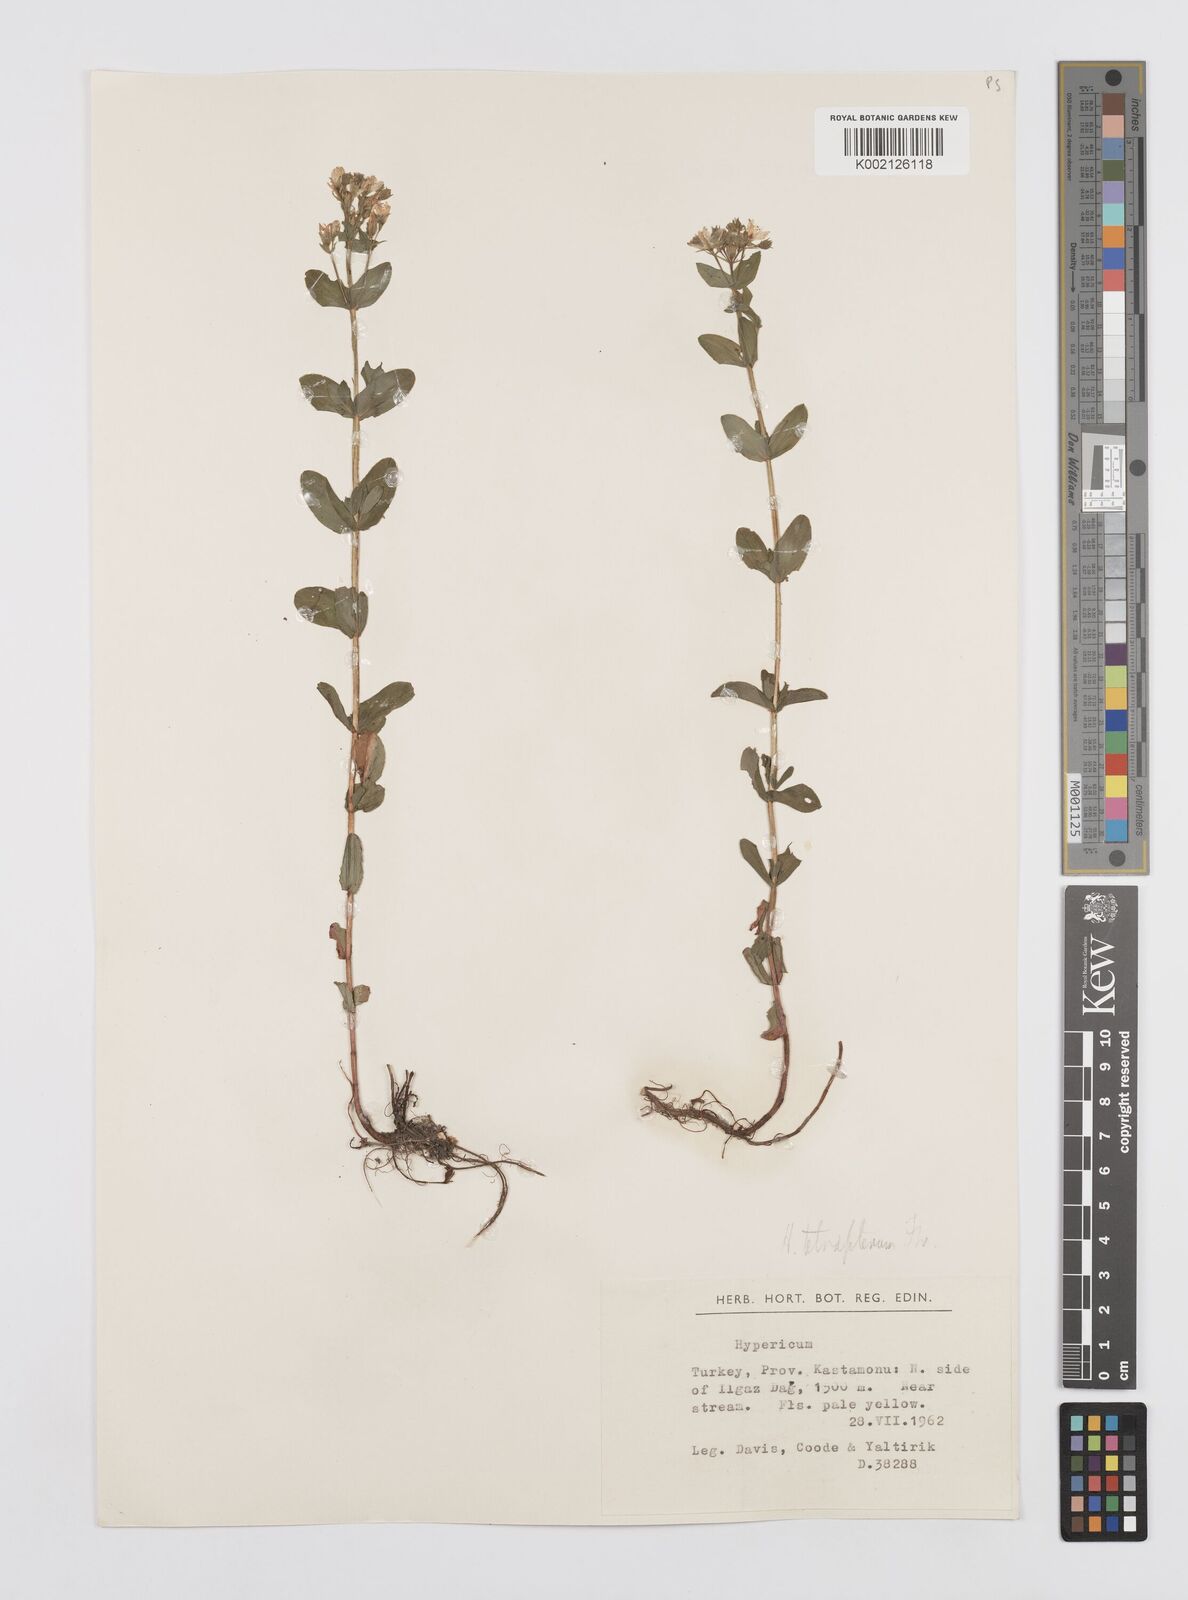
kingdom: Plantae
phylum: Tracheophyta
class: Magnoliopsida
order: Malpighiales
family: Hypericaceae
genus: Hypericum
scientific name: Hypericum tetrapterum
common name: Square-stalked st. john's-wort
